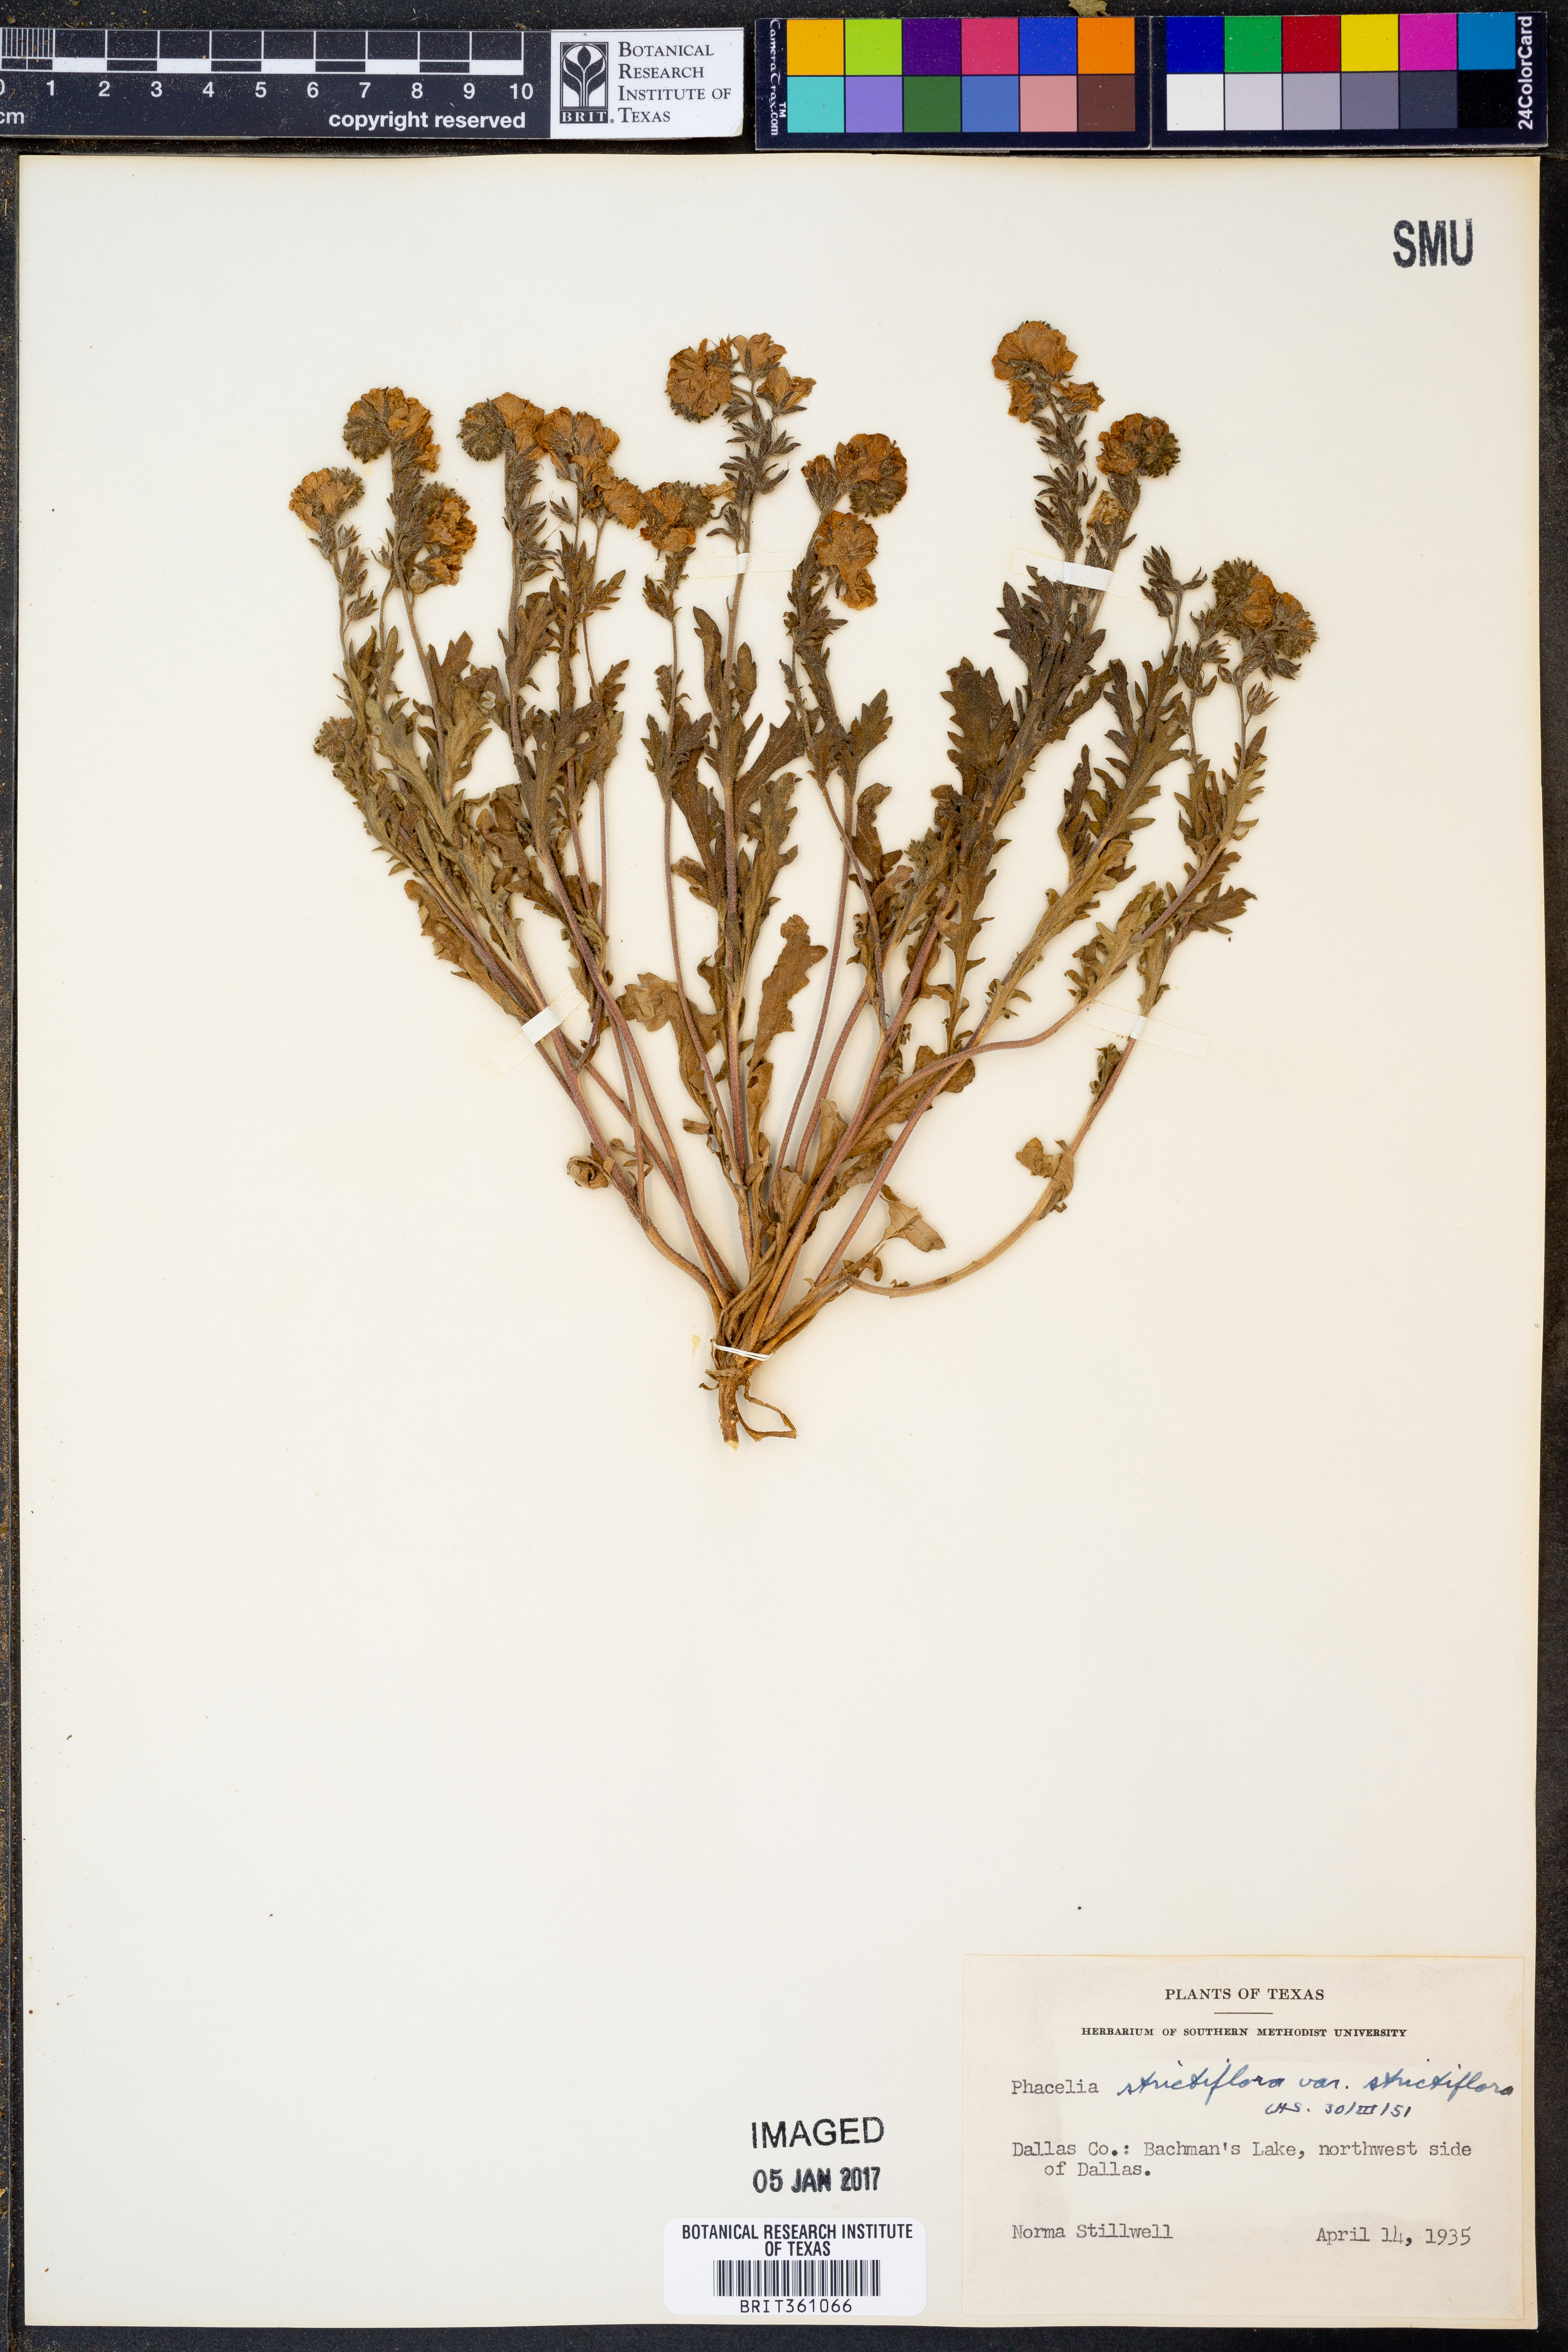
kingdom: Plantae
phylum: Tracheophyta
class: Magnoliopsida
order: Boraginales
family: Hydrophyllaceae
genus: Phacelia
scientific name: Phacelia strictiflora
